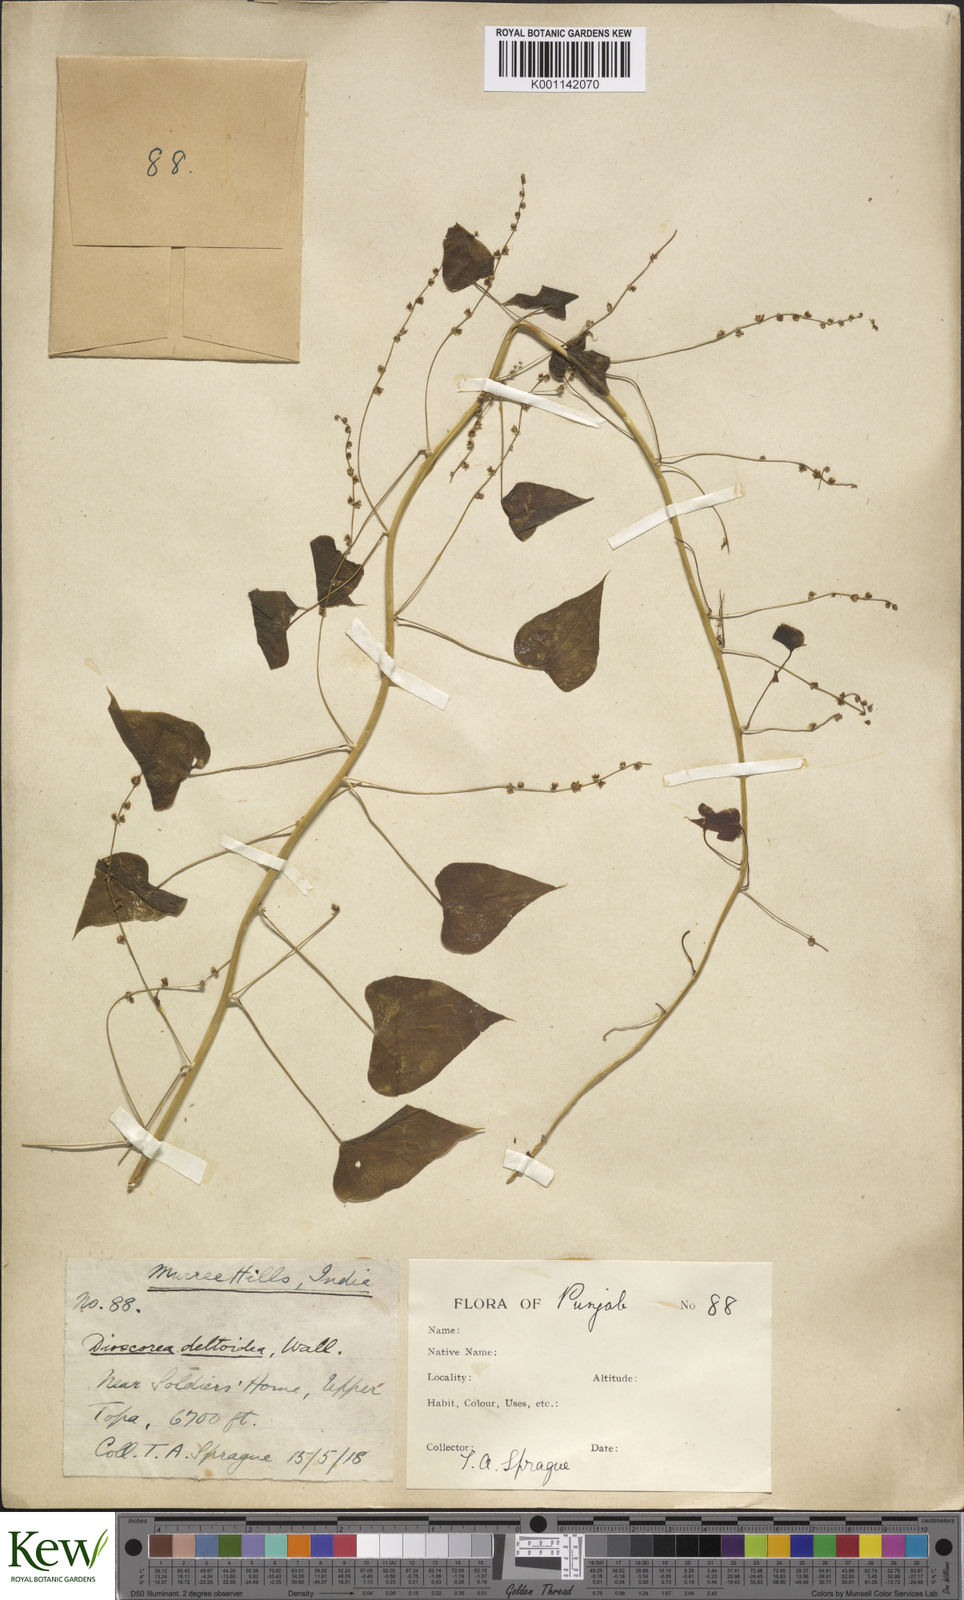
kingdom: Plantae
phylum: Tracheophyta
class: Liliopsida
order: Dioscoreales
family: Dioscoreaceae
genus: Dioscorea
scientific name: Dioscorea deltoidea
